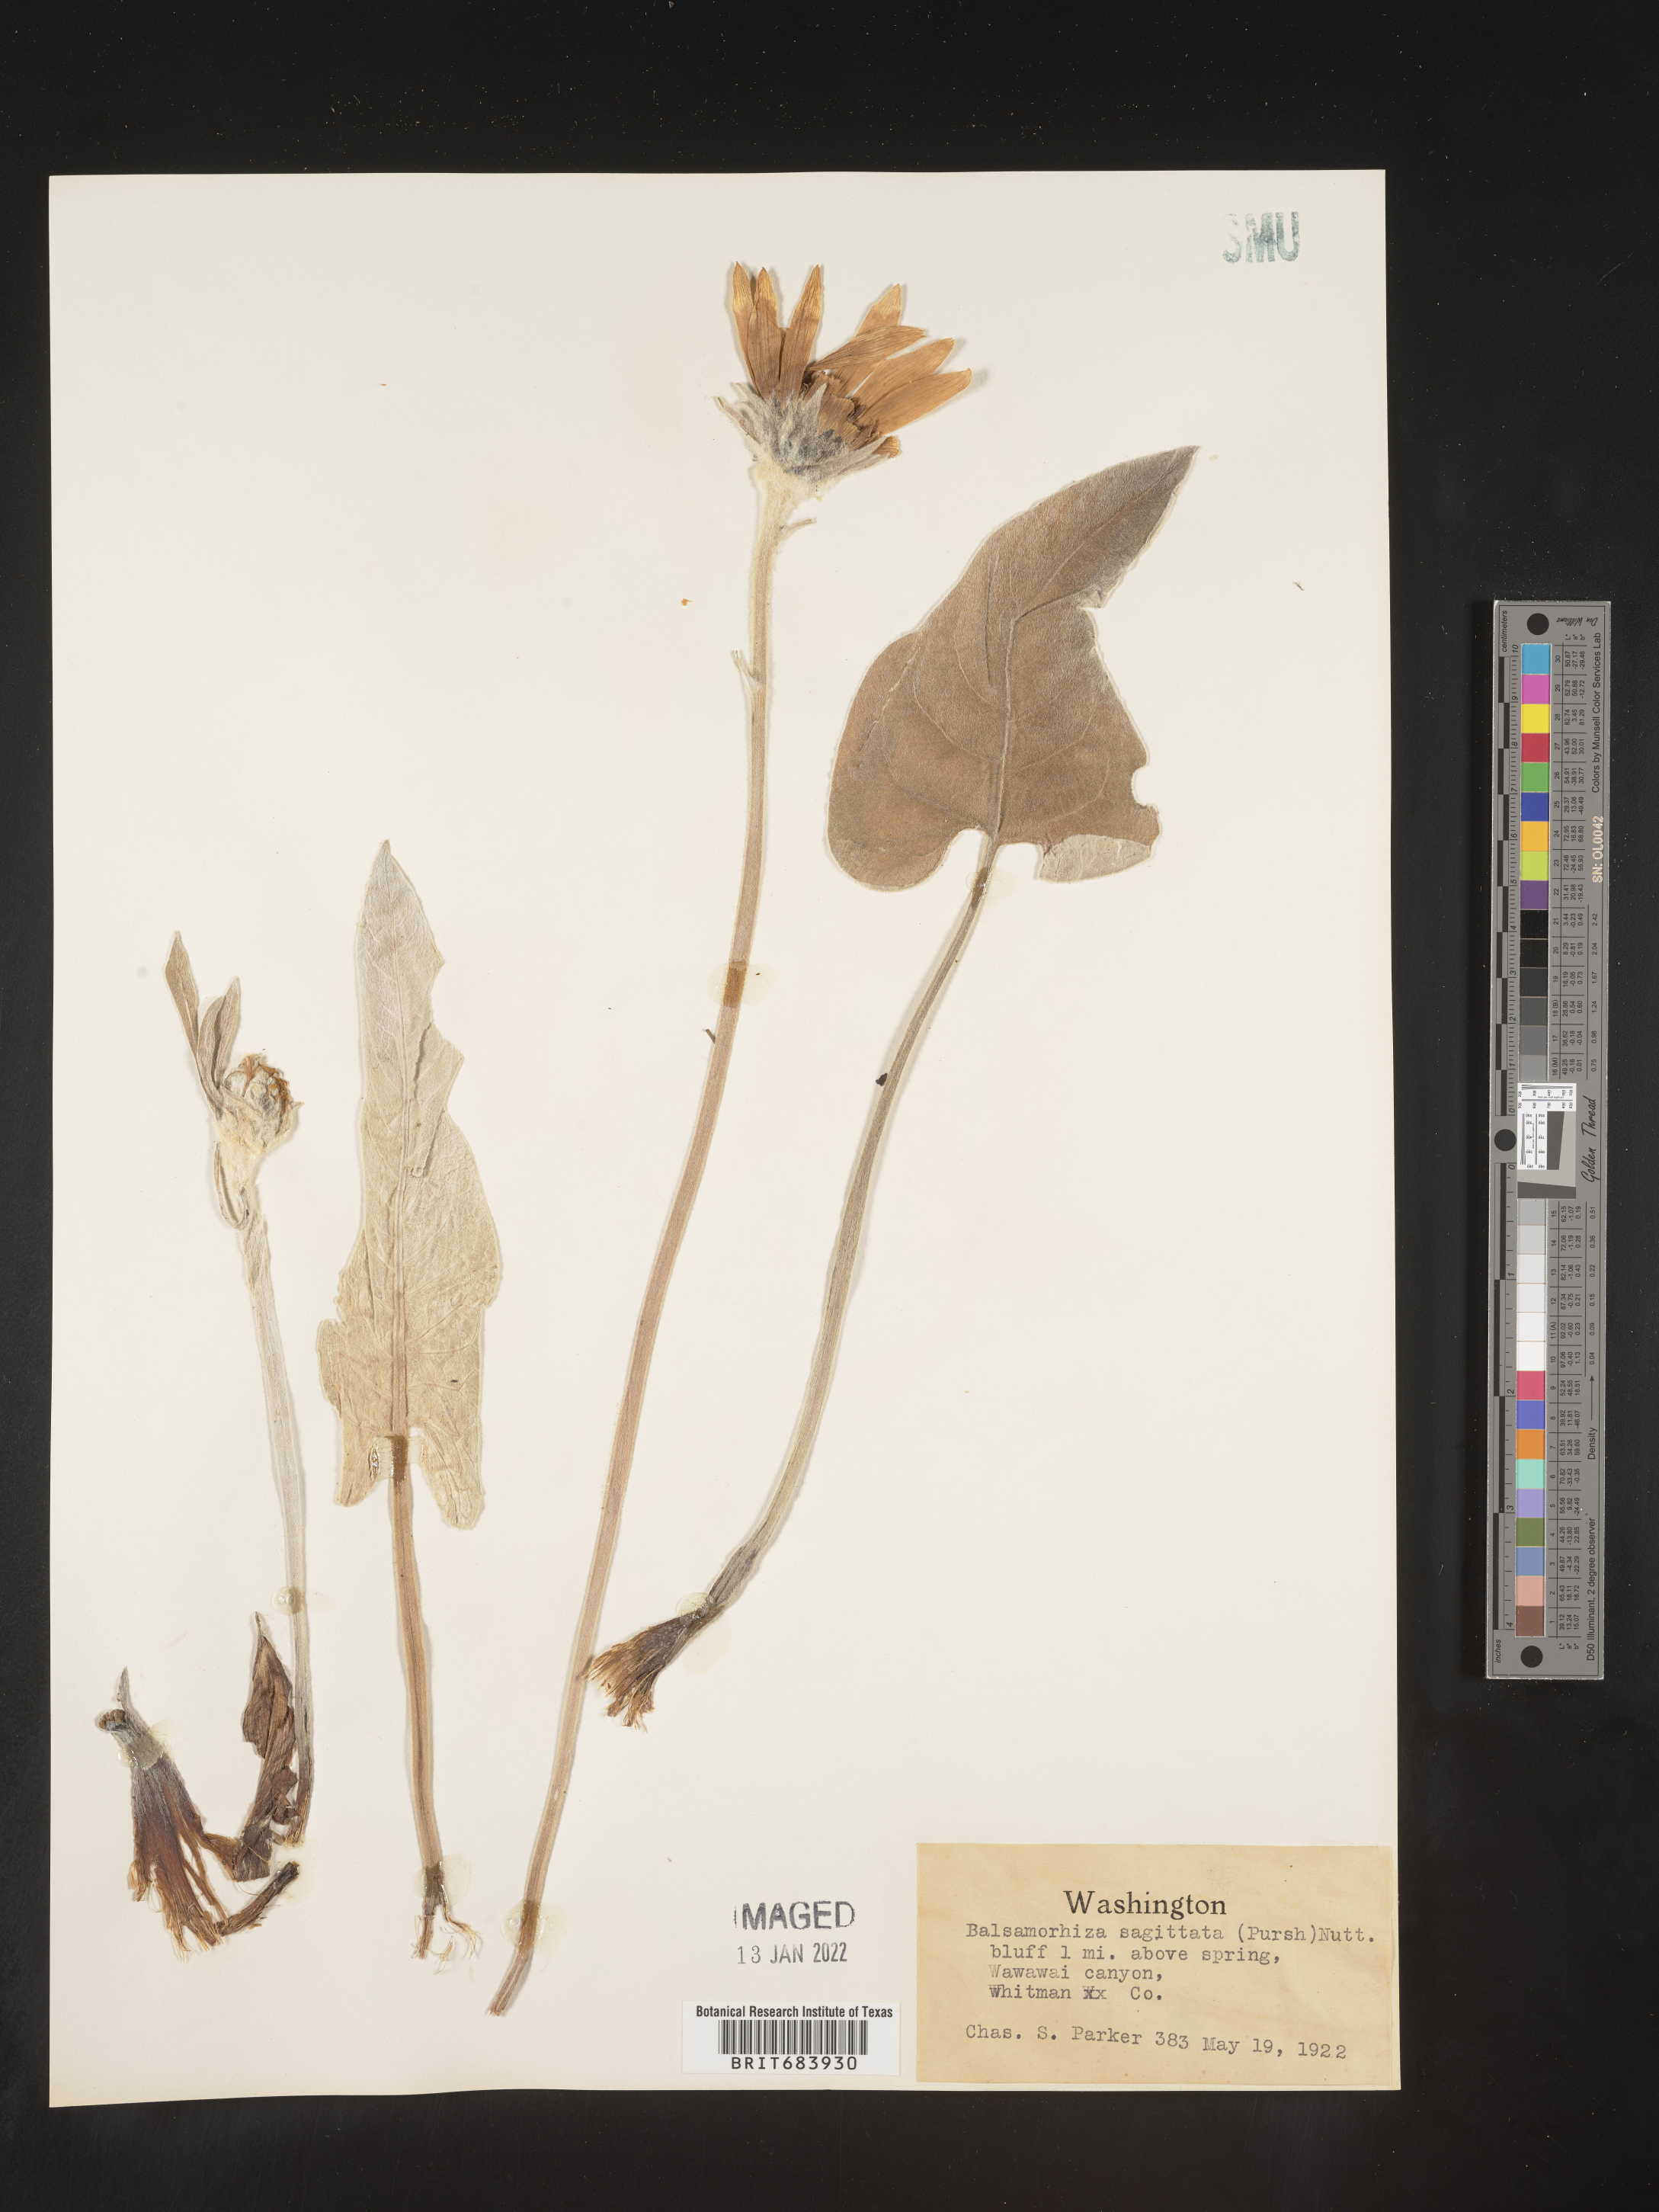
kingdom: Plantae
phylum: Tracheophyta
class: Magnoliopsida
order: Asterales
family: Asteraceae
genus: Wyethia
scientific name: Wyethia sagittata
